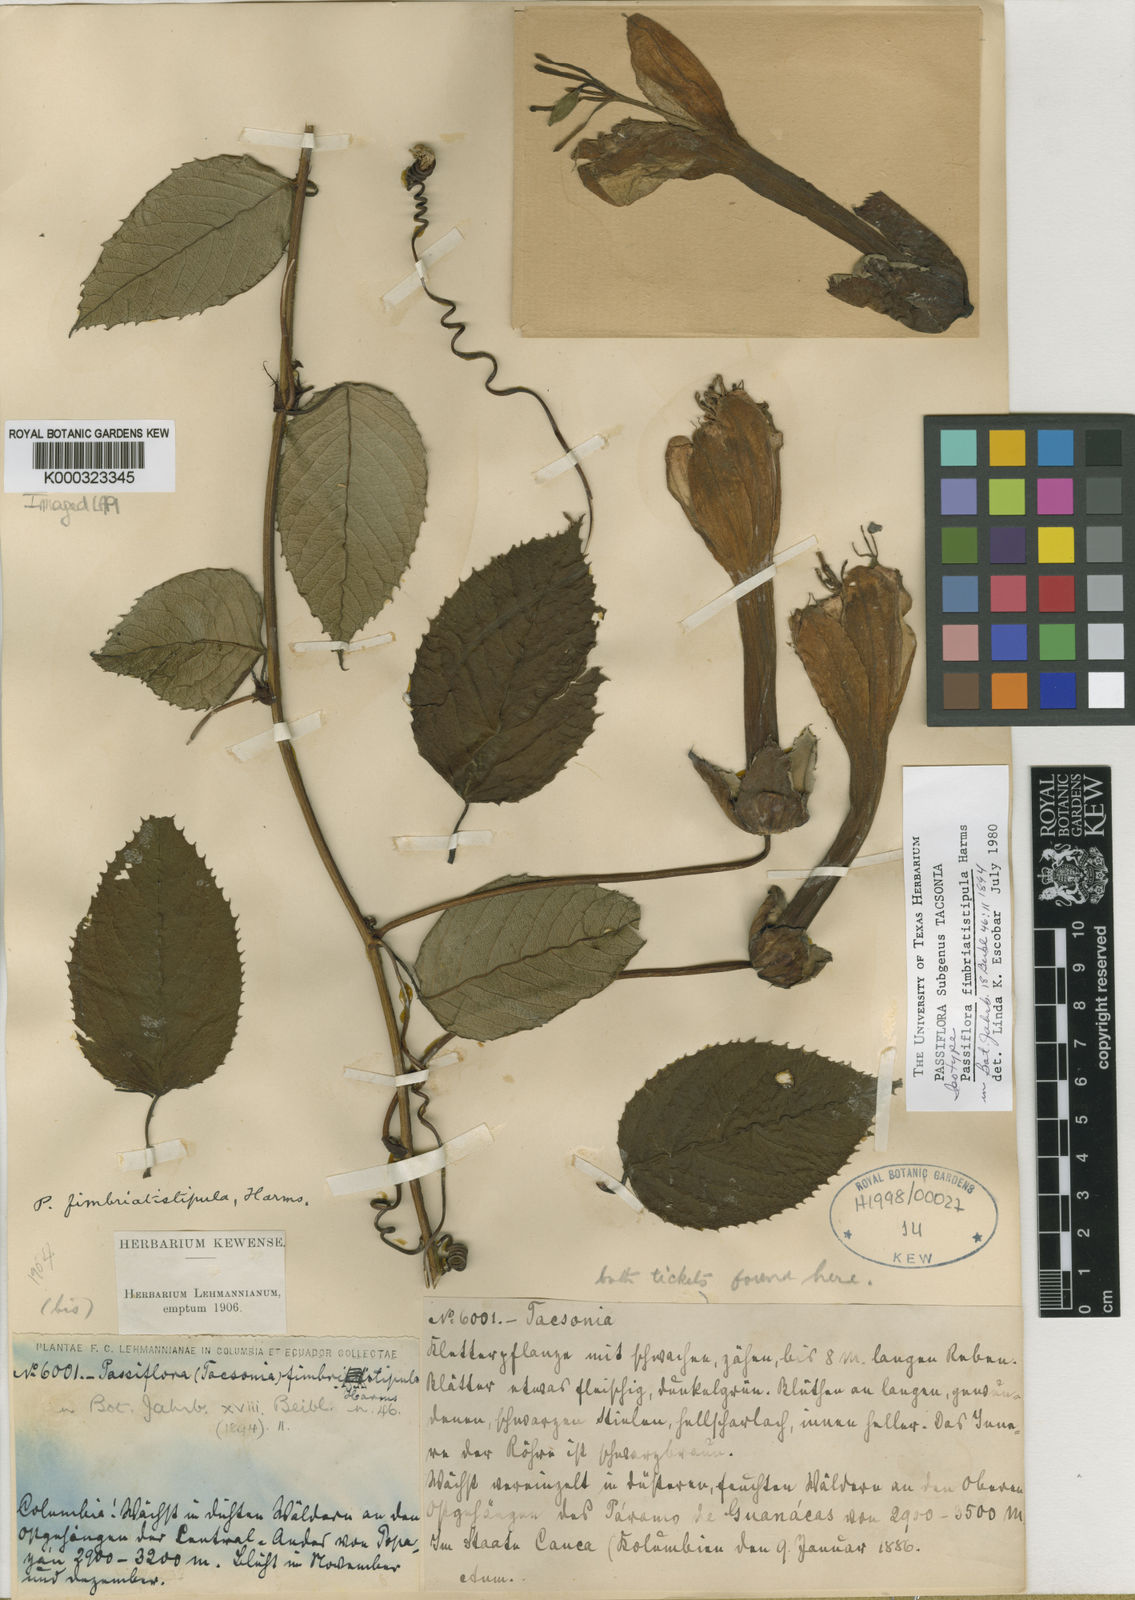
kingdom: Plantae
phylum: Tracheophyta
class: Magnoliopsida
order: Malpighiales
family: Passifloraceae
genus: Passiflora
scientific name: Passiflora fimbriatistipula
